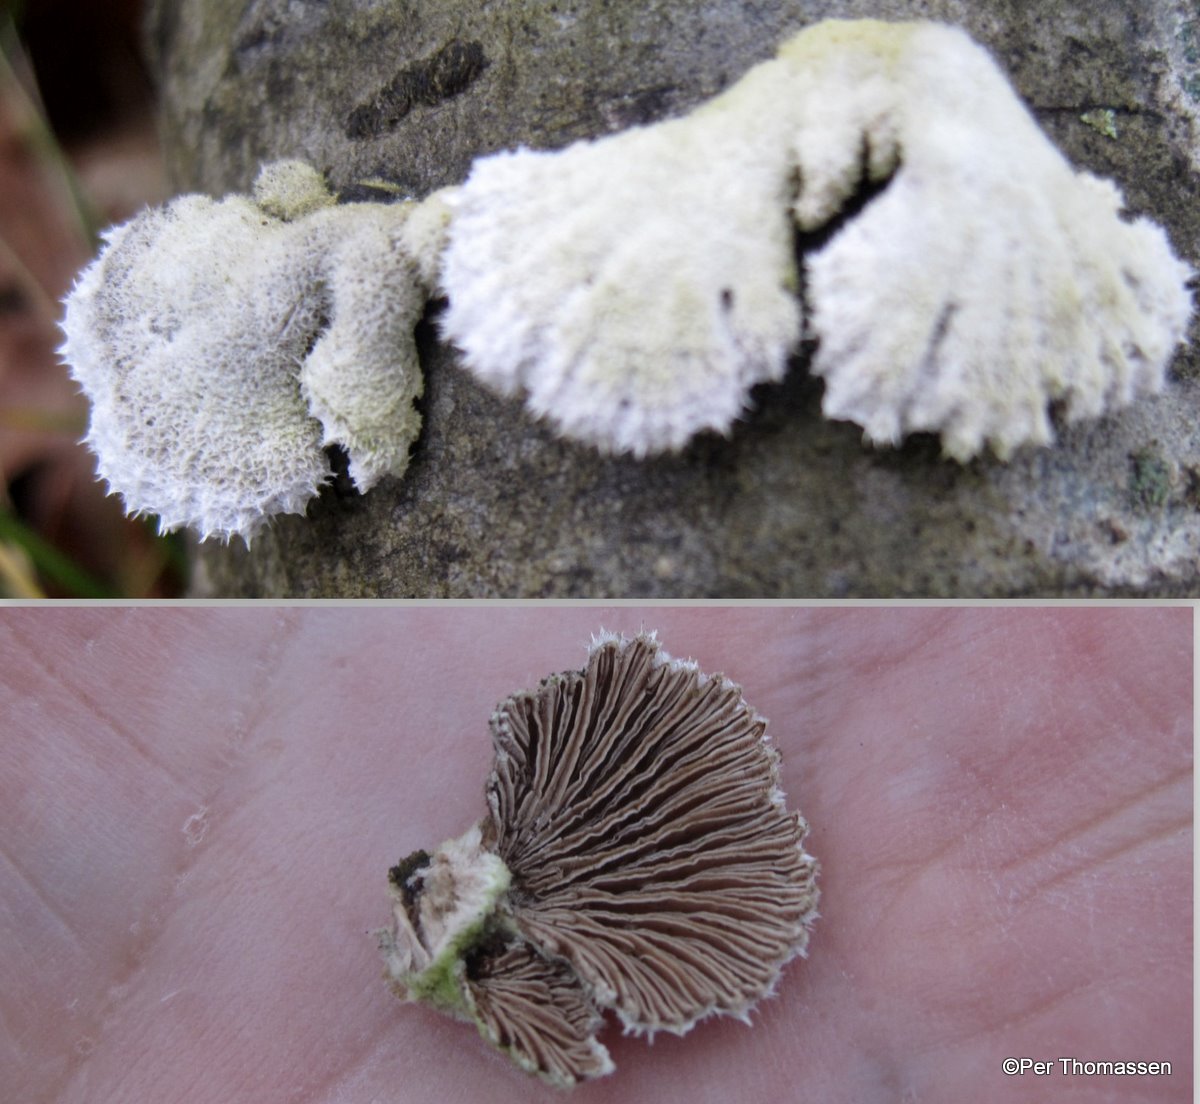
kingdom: Fungi
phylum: Basidiomycota
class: Agaricomycetes
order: Agaricales
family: Schizophyllaceae
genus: Schizophyllum
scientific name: Schizophyllum commune
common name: kløvblad
